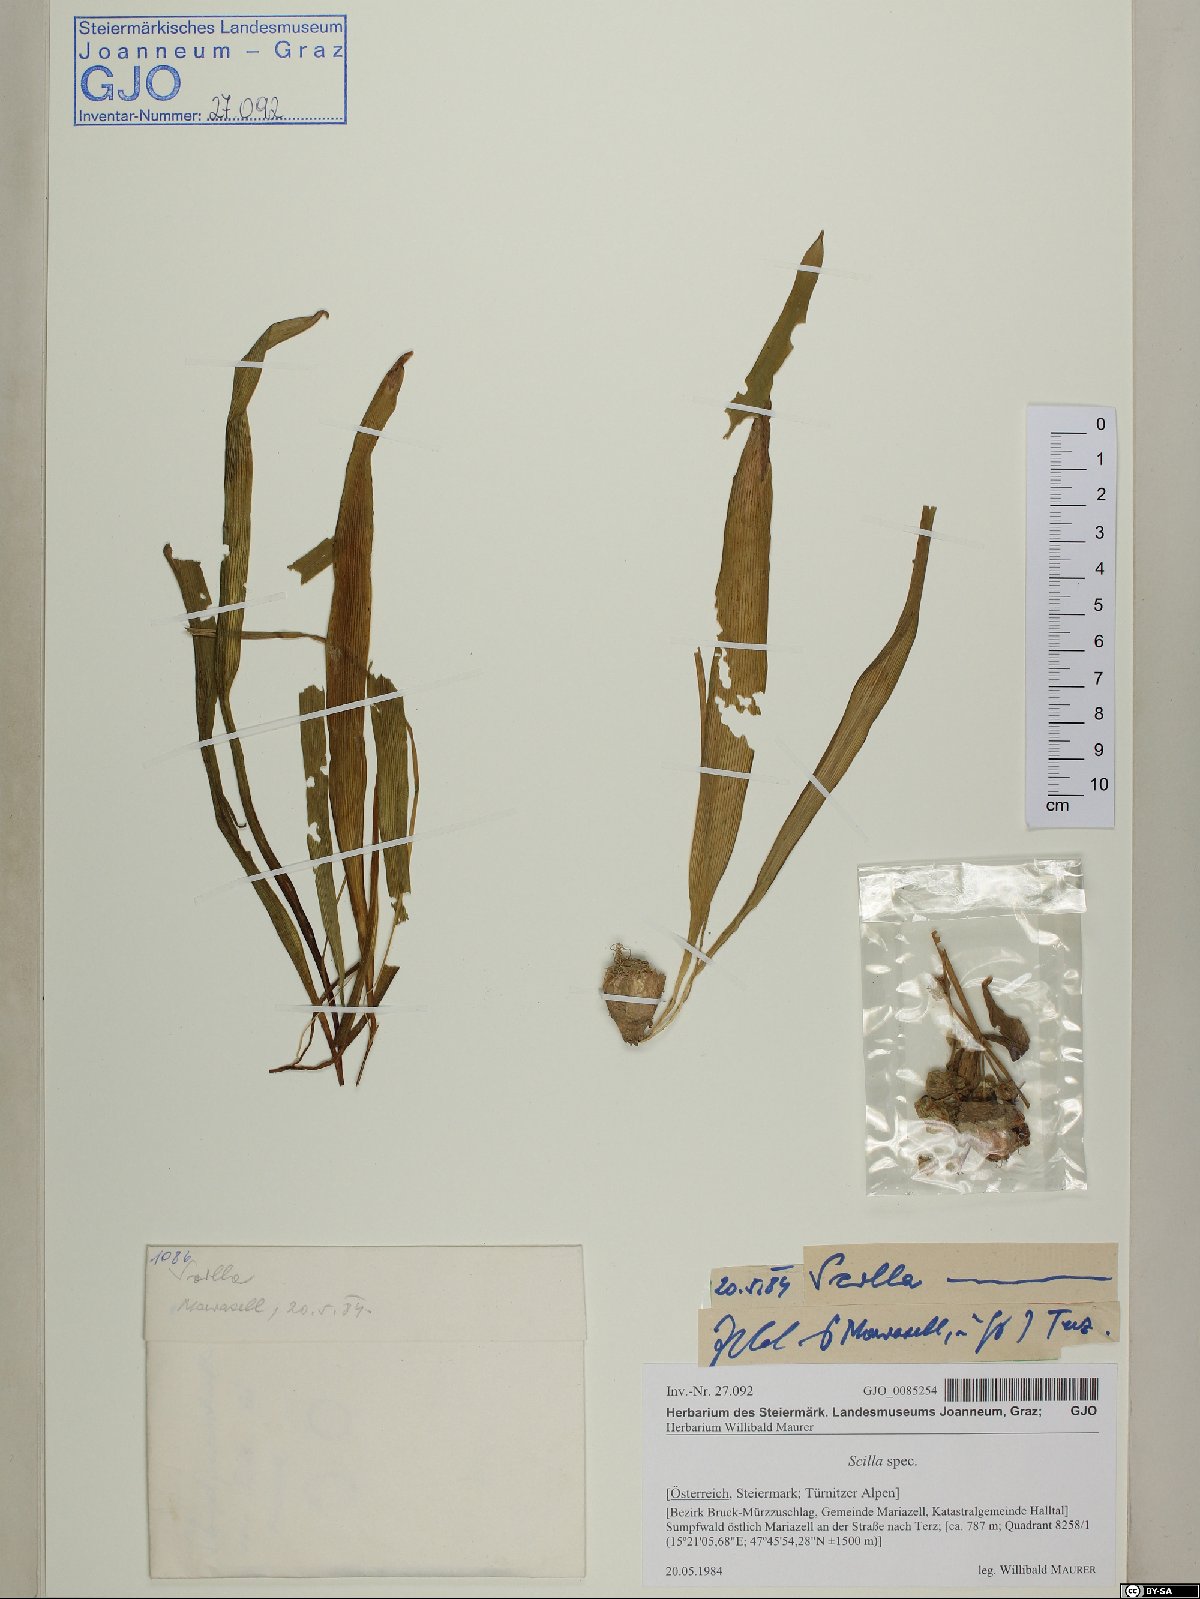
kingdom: Plantae
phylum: Tracheophyta
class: Liliopsida
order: Asparagales
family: Asparagaceae
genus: Scilla
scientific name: Scilla
